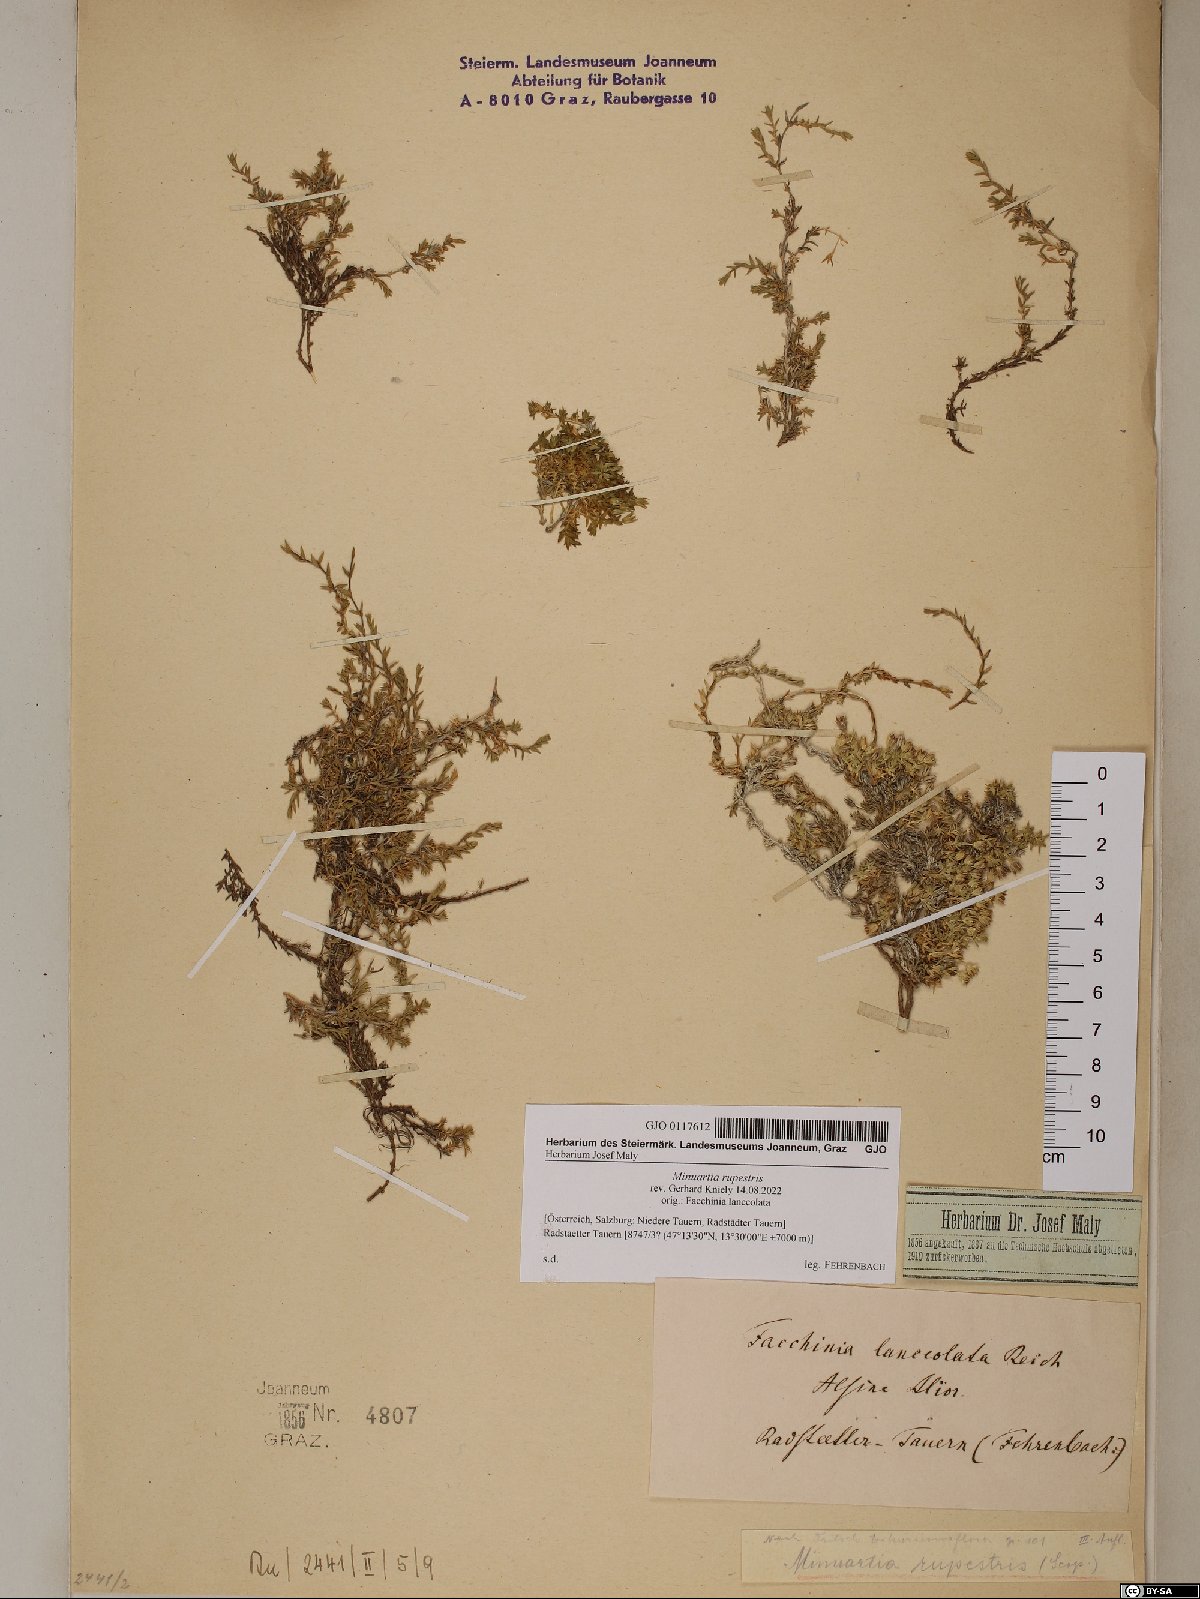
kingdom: Plantae
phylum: Tracheophyta
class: Magnoliopsida
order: Caryophyllales
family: Caryophyllaceae
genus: Facchinia
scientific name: Facchinia rupestris
